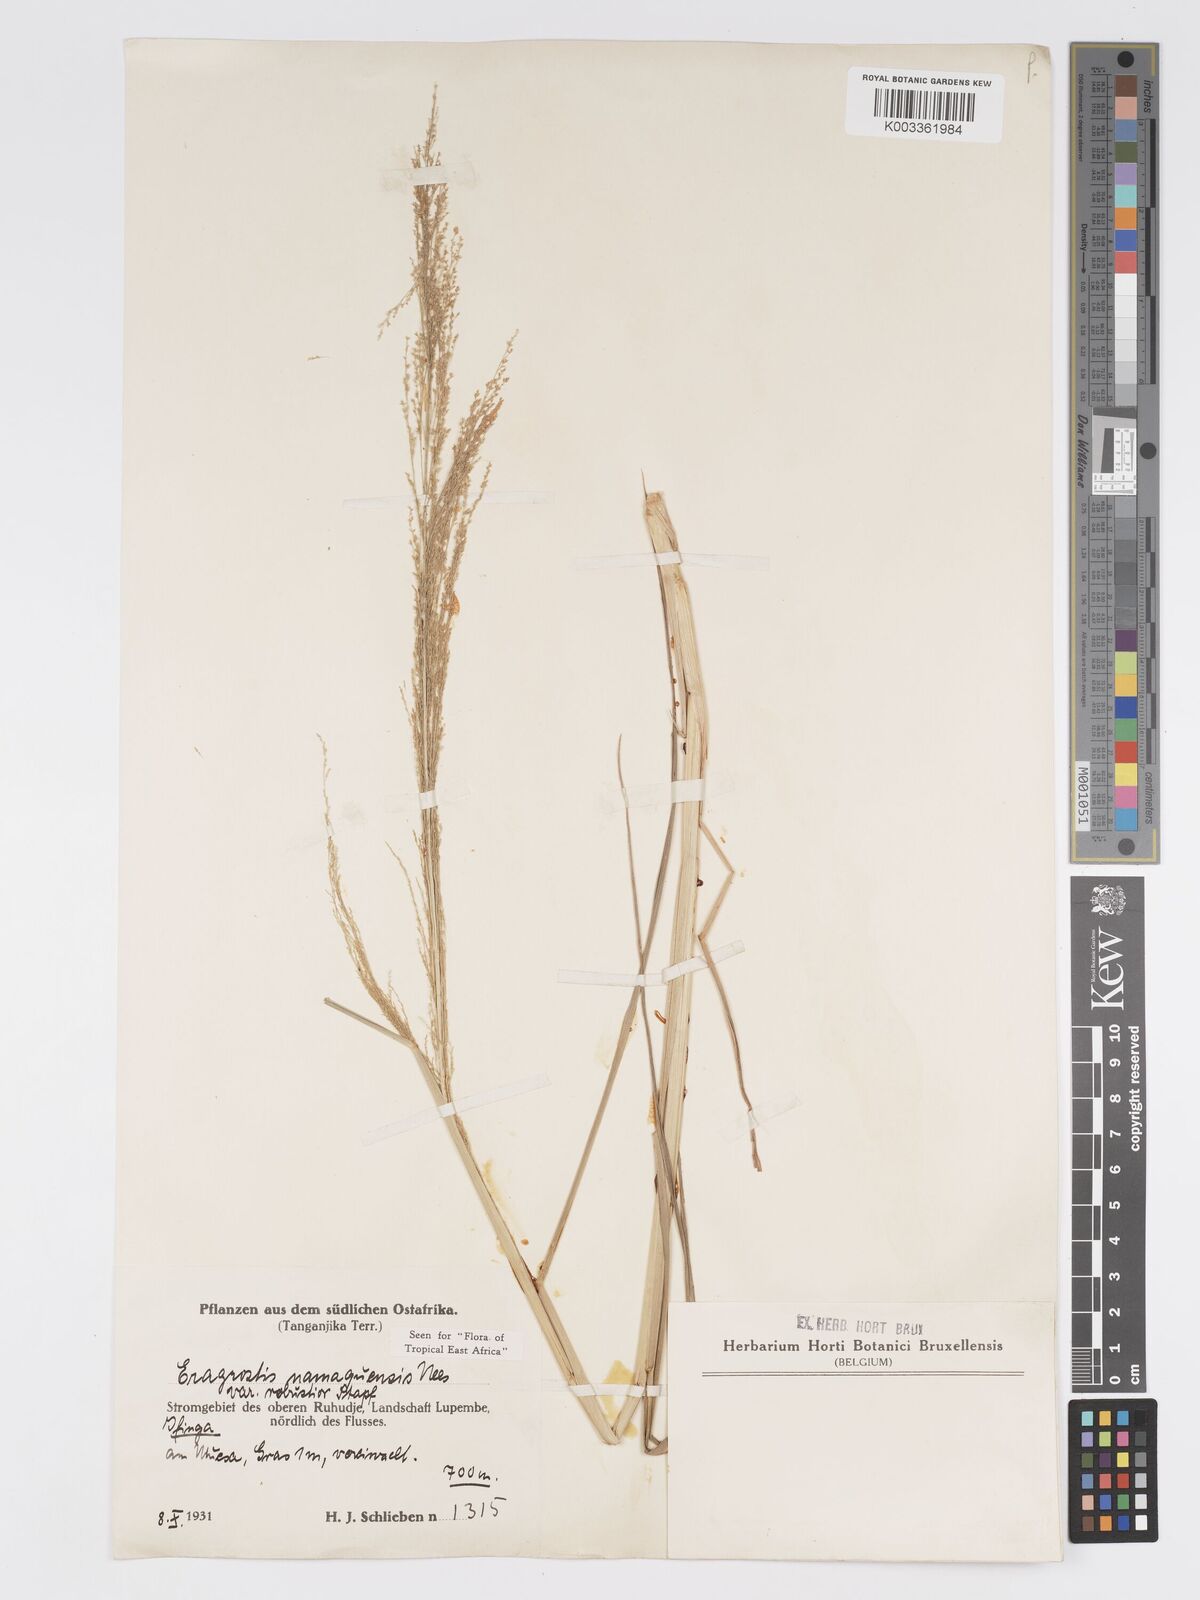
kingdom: Plantae
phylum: Tracheophyta
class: Liliopsida
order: Poales
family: Poaceae
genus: Eragrostis
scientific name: Eragrostis japonica
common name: Pond lovegrass
